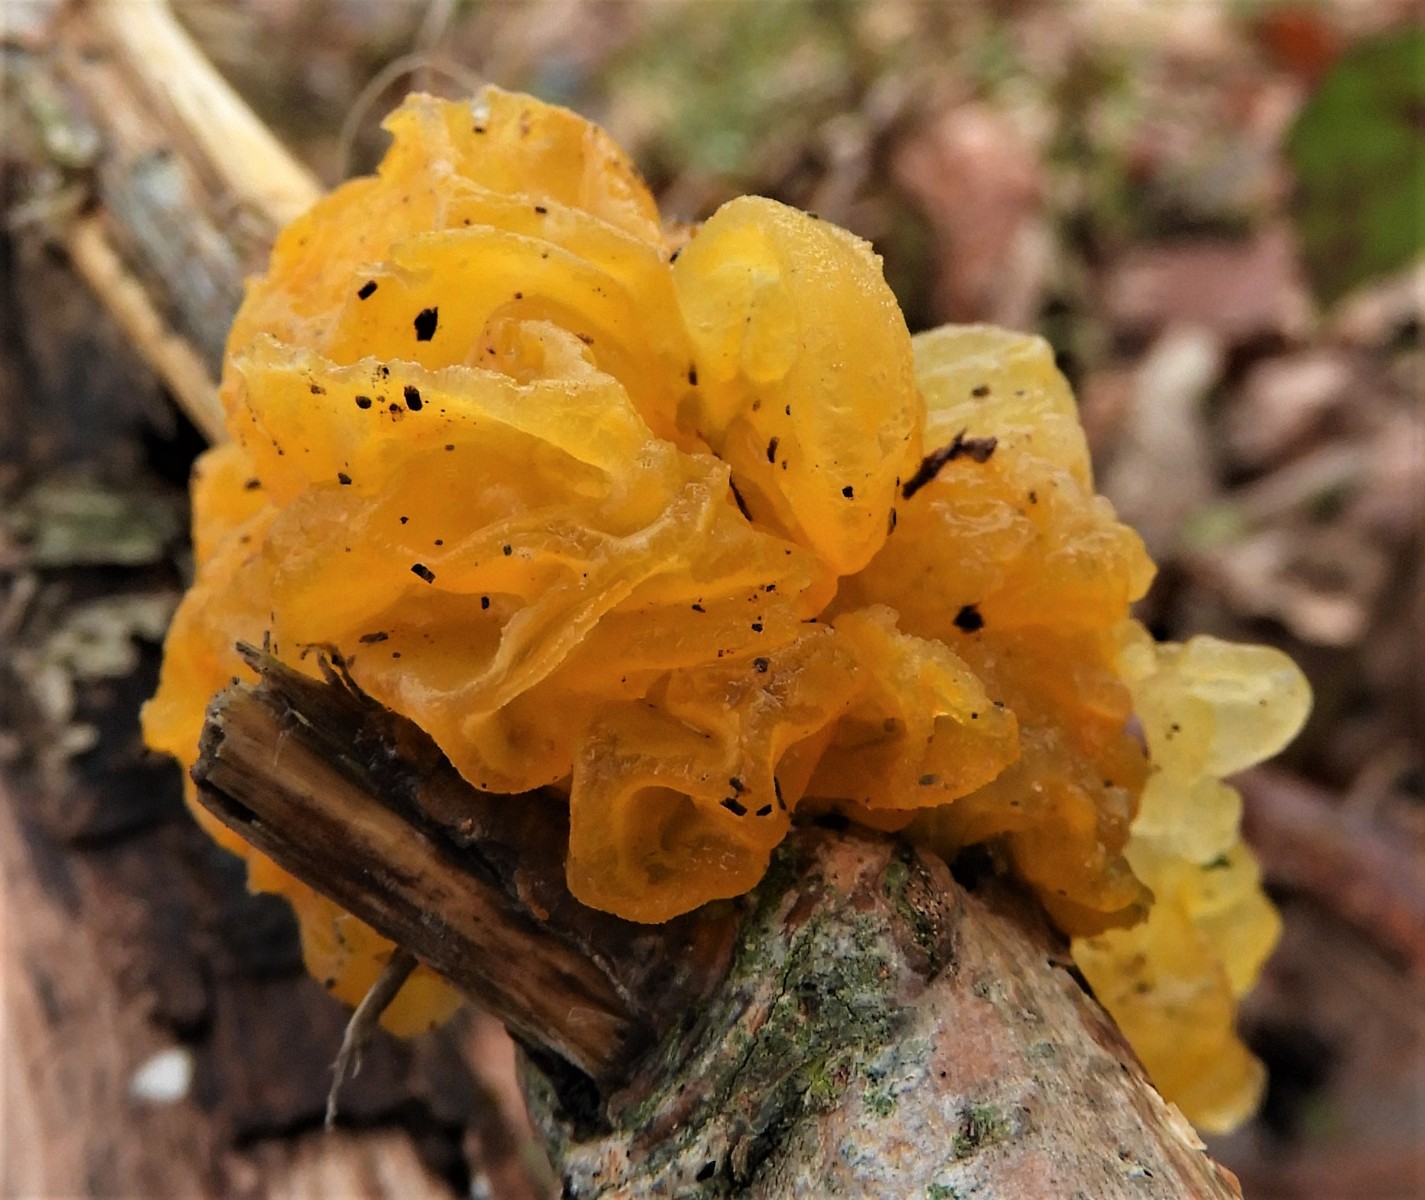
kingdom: Fungi
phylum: Basidiomycota
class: Tremellomycetes
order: Tremellales
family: Tremellaceae
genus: Tremella
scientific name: Tremella mesenterica
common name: gul bævresvamp
